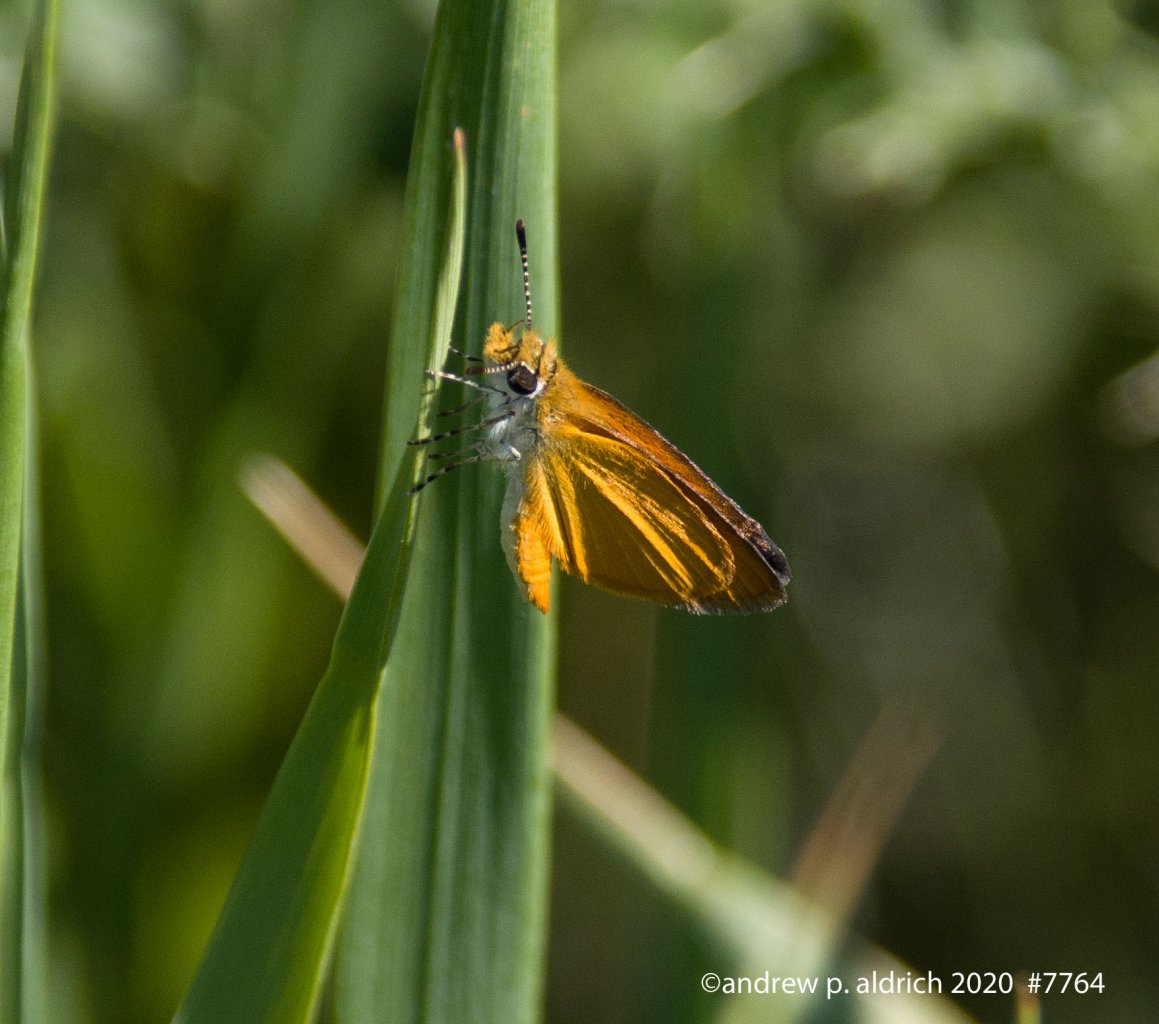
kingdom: Animalia
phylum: Arthropoda
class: Insecta
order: Lepidoptera
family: Hesperiidae
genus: Ancyloxypha
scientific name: Ancyloxypha numitor
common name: Least Skipper
